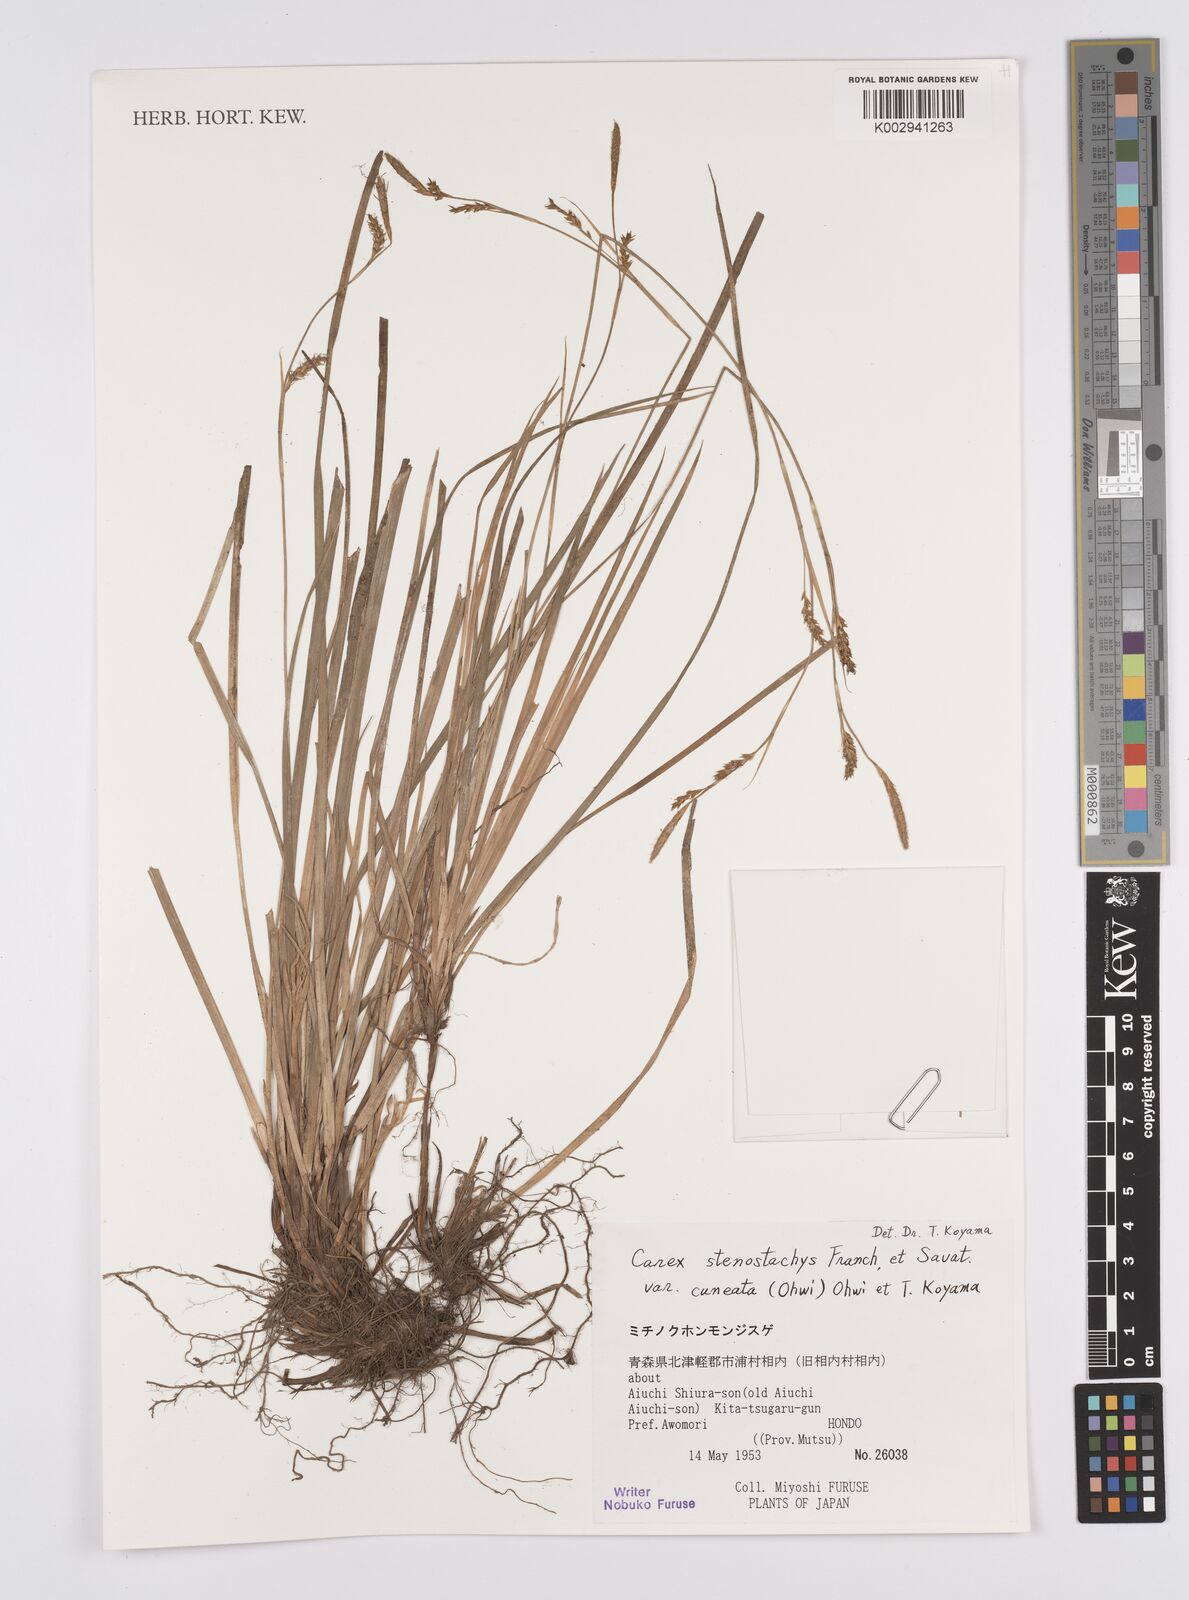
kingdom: Plantae
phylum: Tracheophyta
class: Liliopsida
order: Poales
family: Cyperaceae
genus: Carex
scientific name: Carex stenostachys
